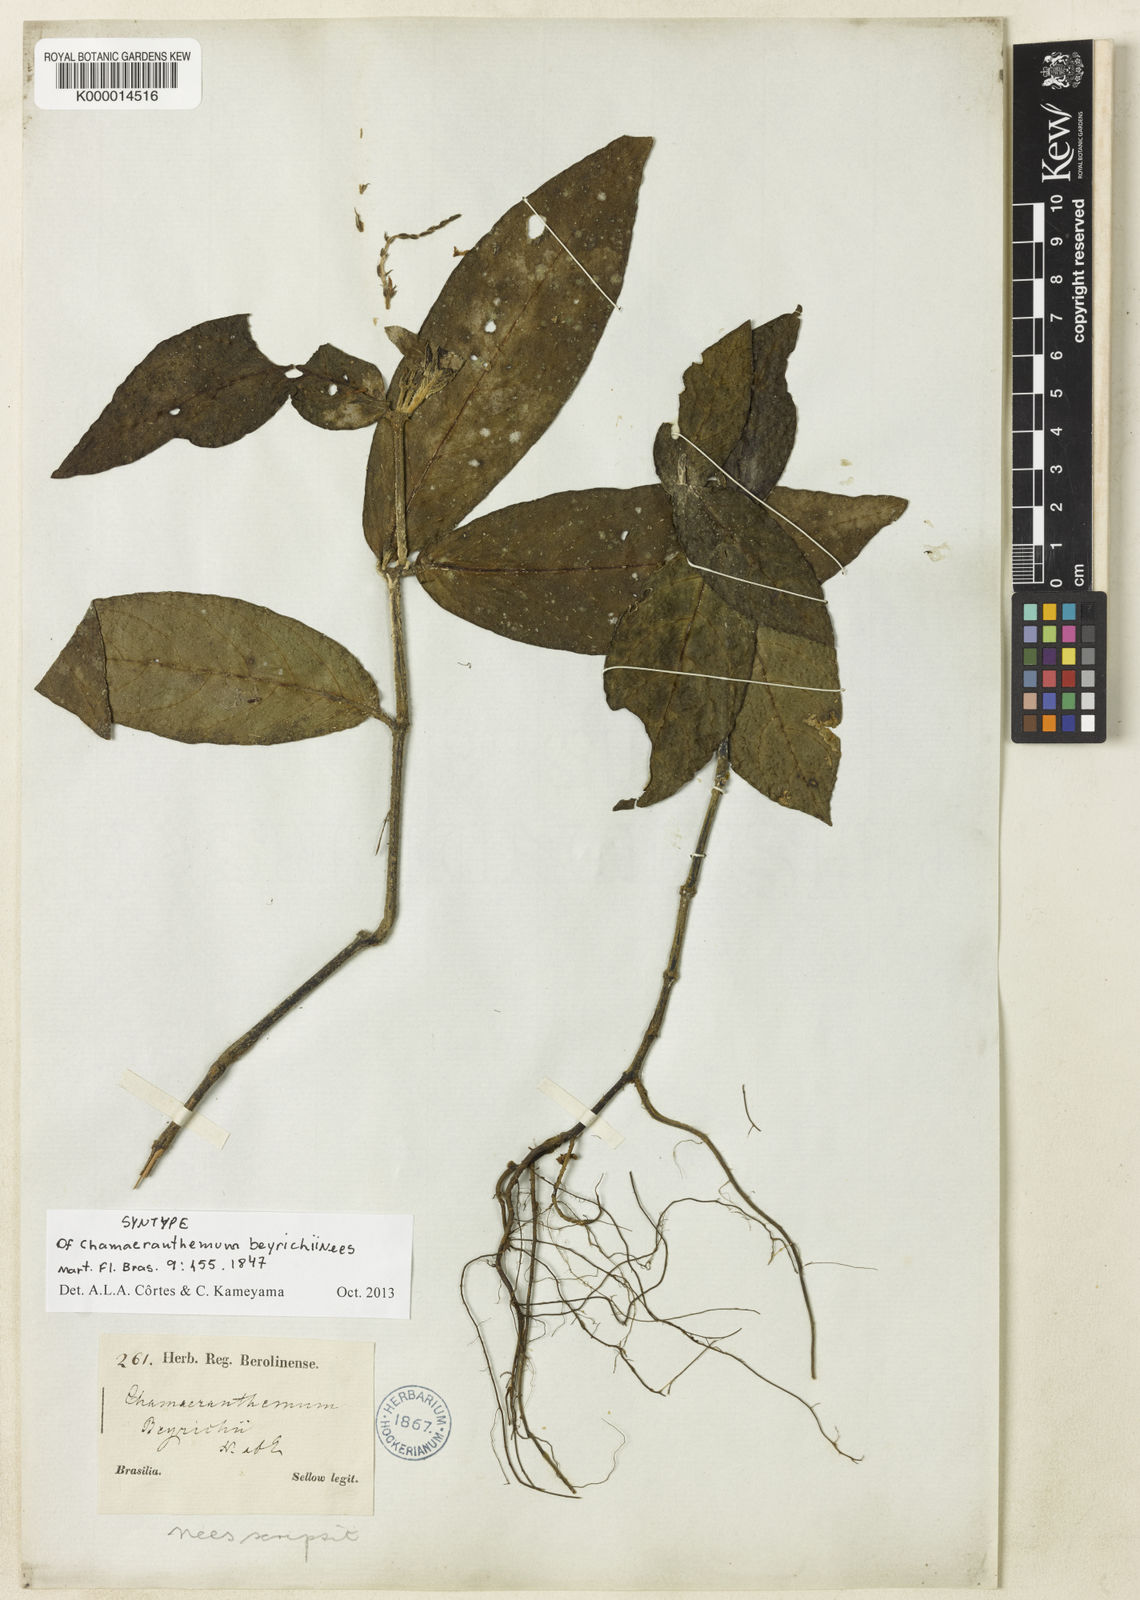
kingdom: Plantae
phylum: Tracheophyta
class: Magnoliopsida
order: Lamiales
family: Acanthaceae
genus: Chamaeranthemum
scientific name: Chamaeranthemum beyrichii
